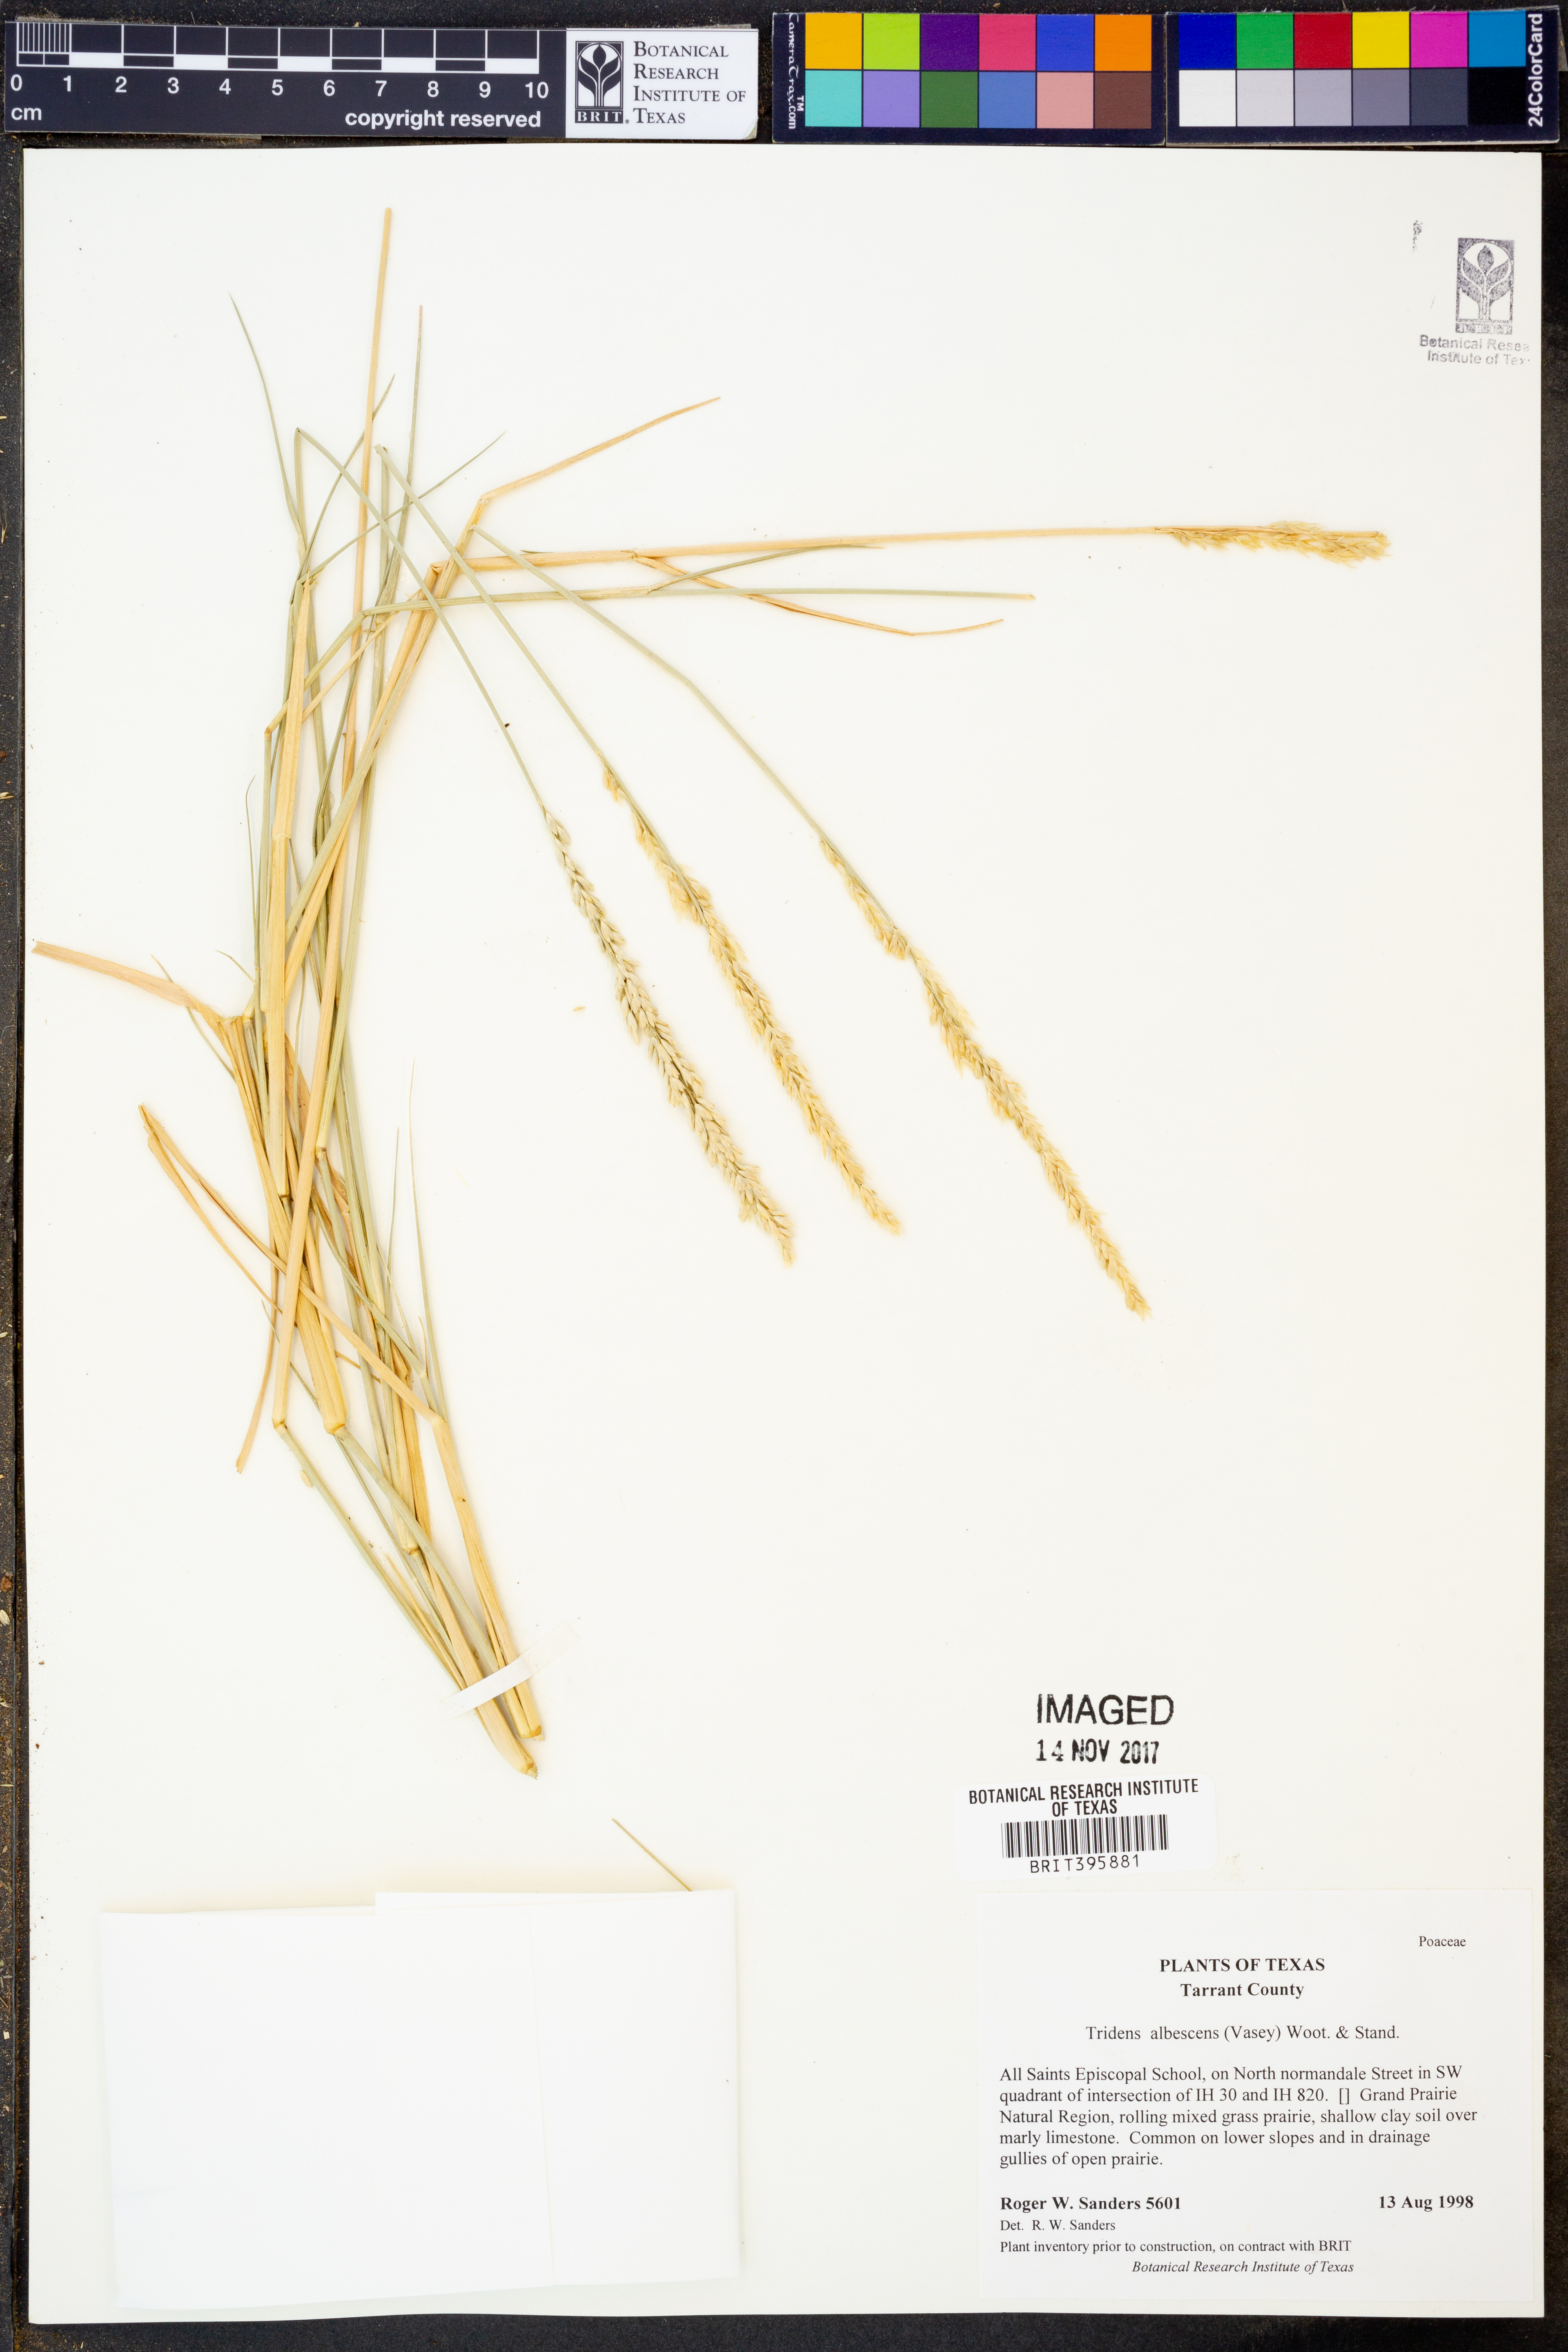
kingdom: Plantae
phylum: Tracheophyta
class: Liliopsida
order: Poales
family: Poaceae
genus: Tridens
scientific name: Tridens albescens
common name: White tridens
